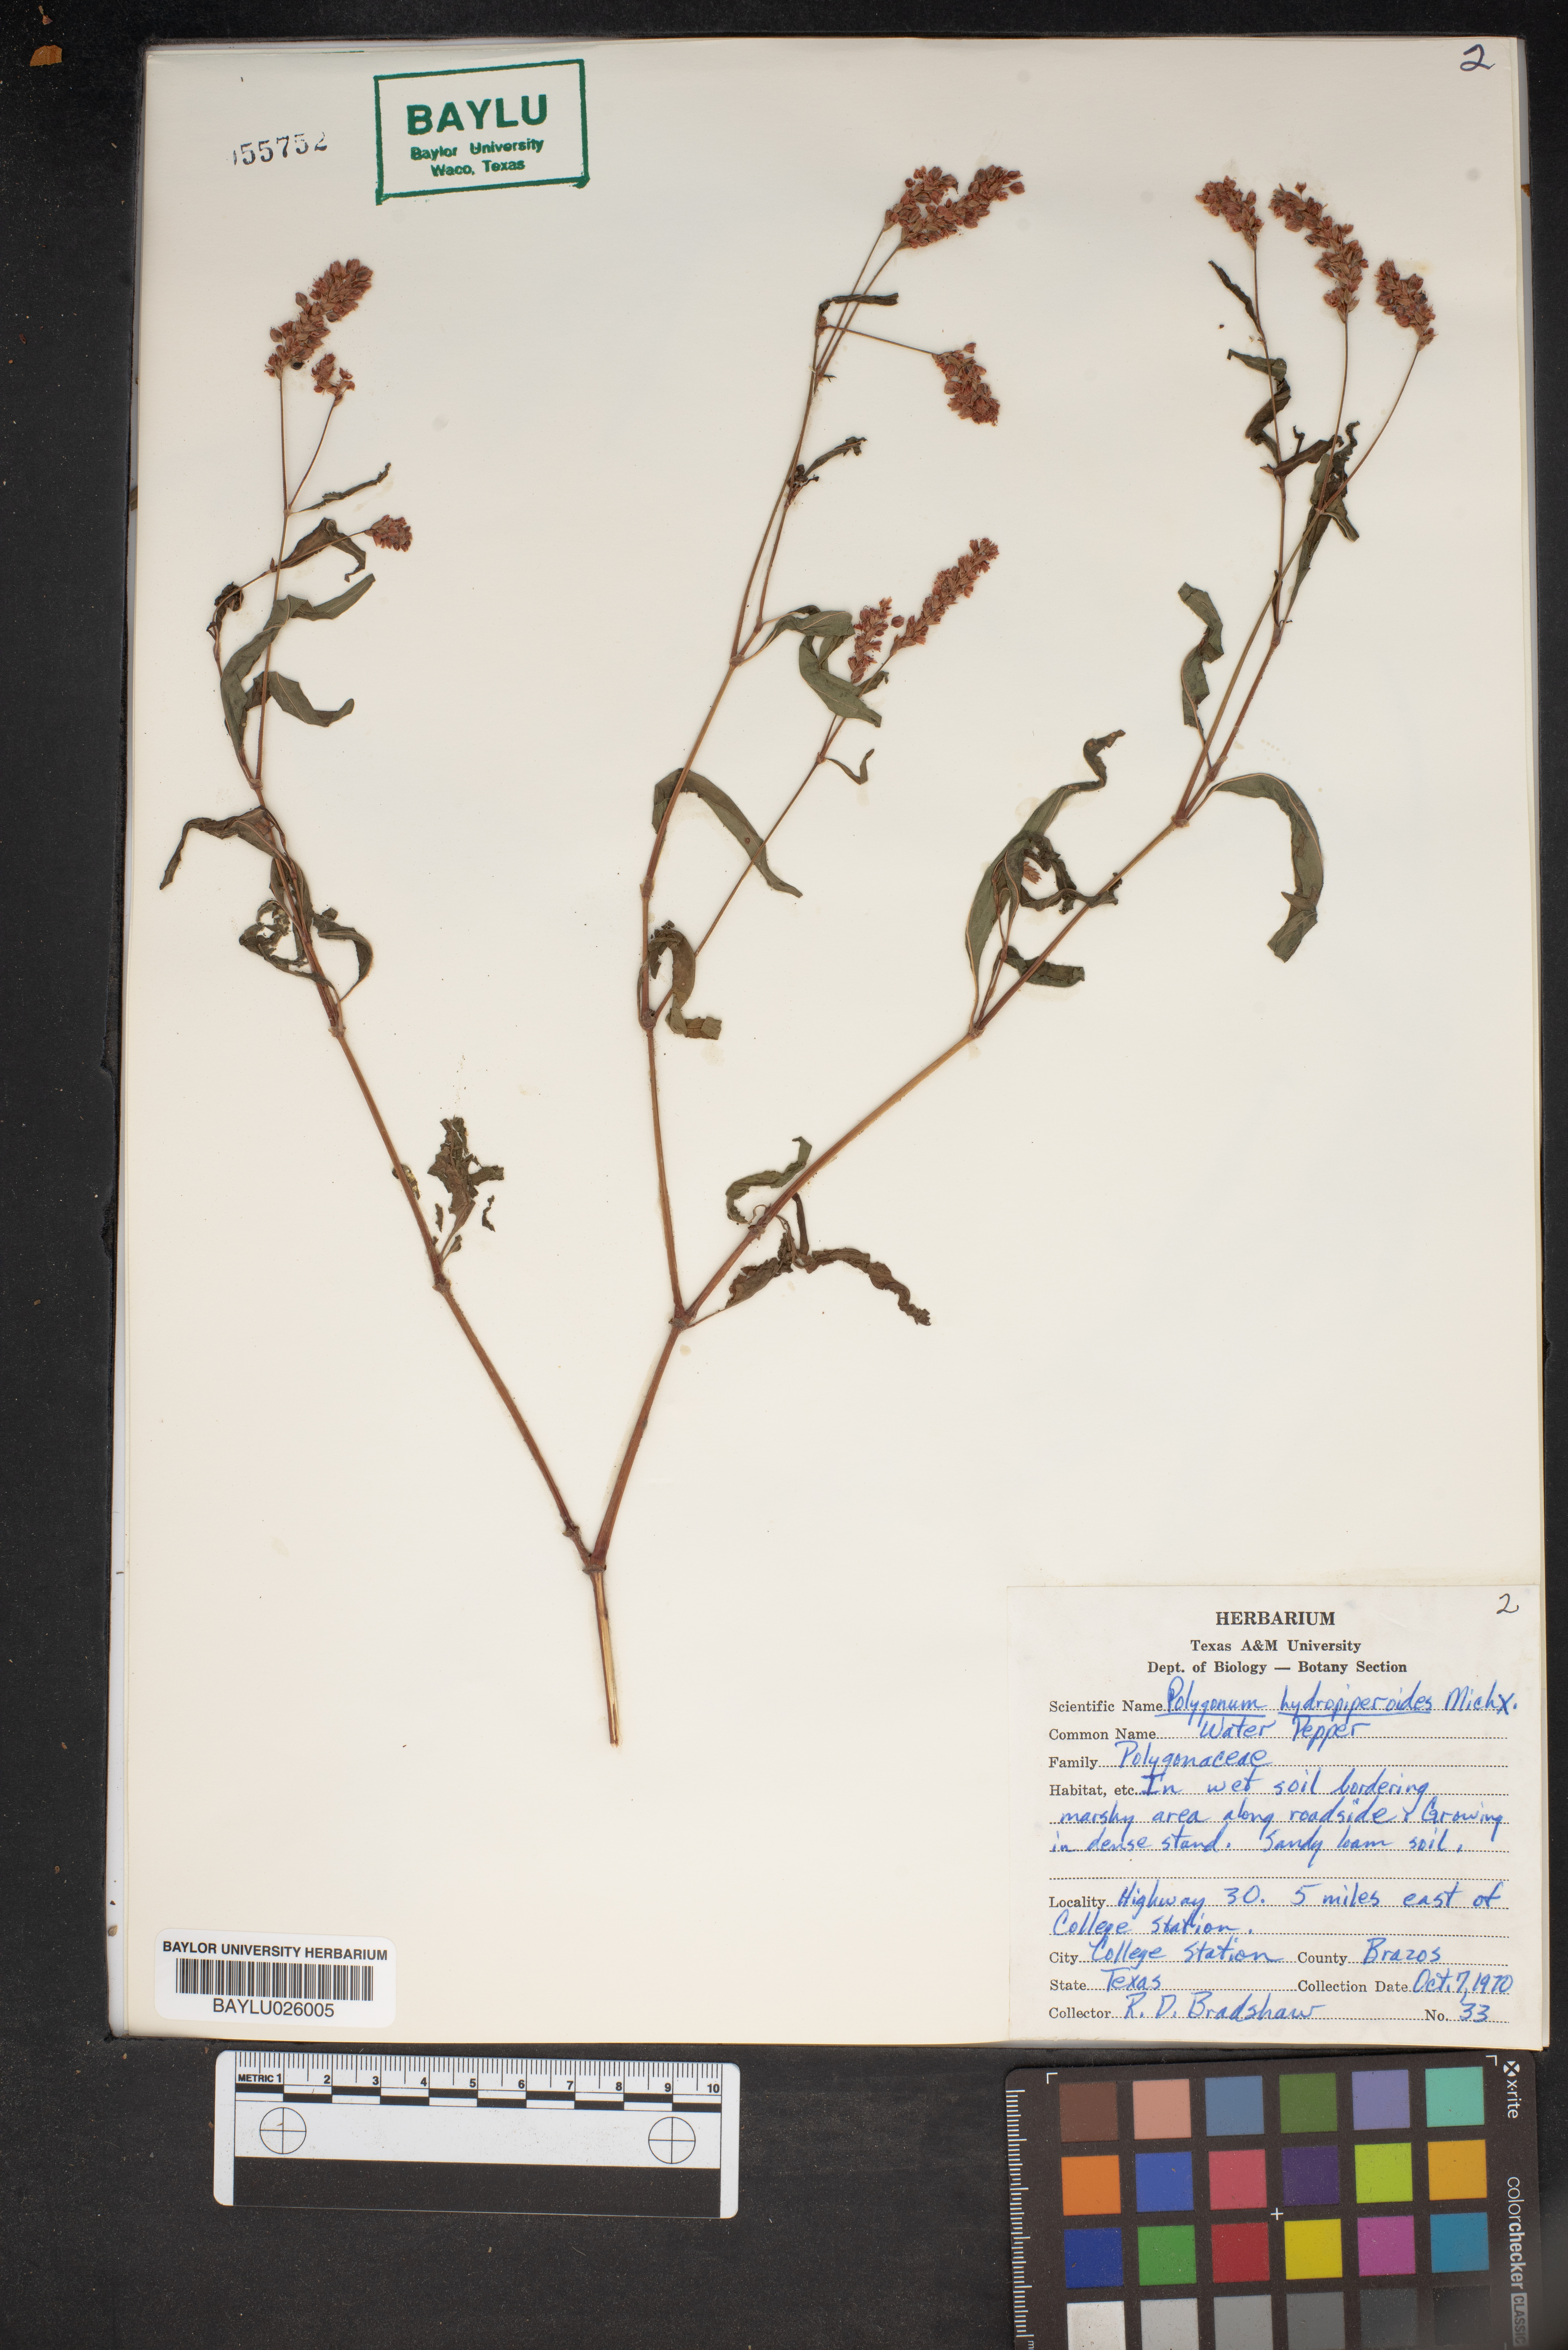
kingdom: Plantae
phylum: Tracheophyta
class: Magnoliopsida
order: Caryophyllales
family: Polygonaceae
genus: Persicaria
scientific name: Persicaria hydropiperoides
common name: Swamp smartweed
